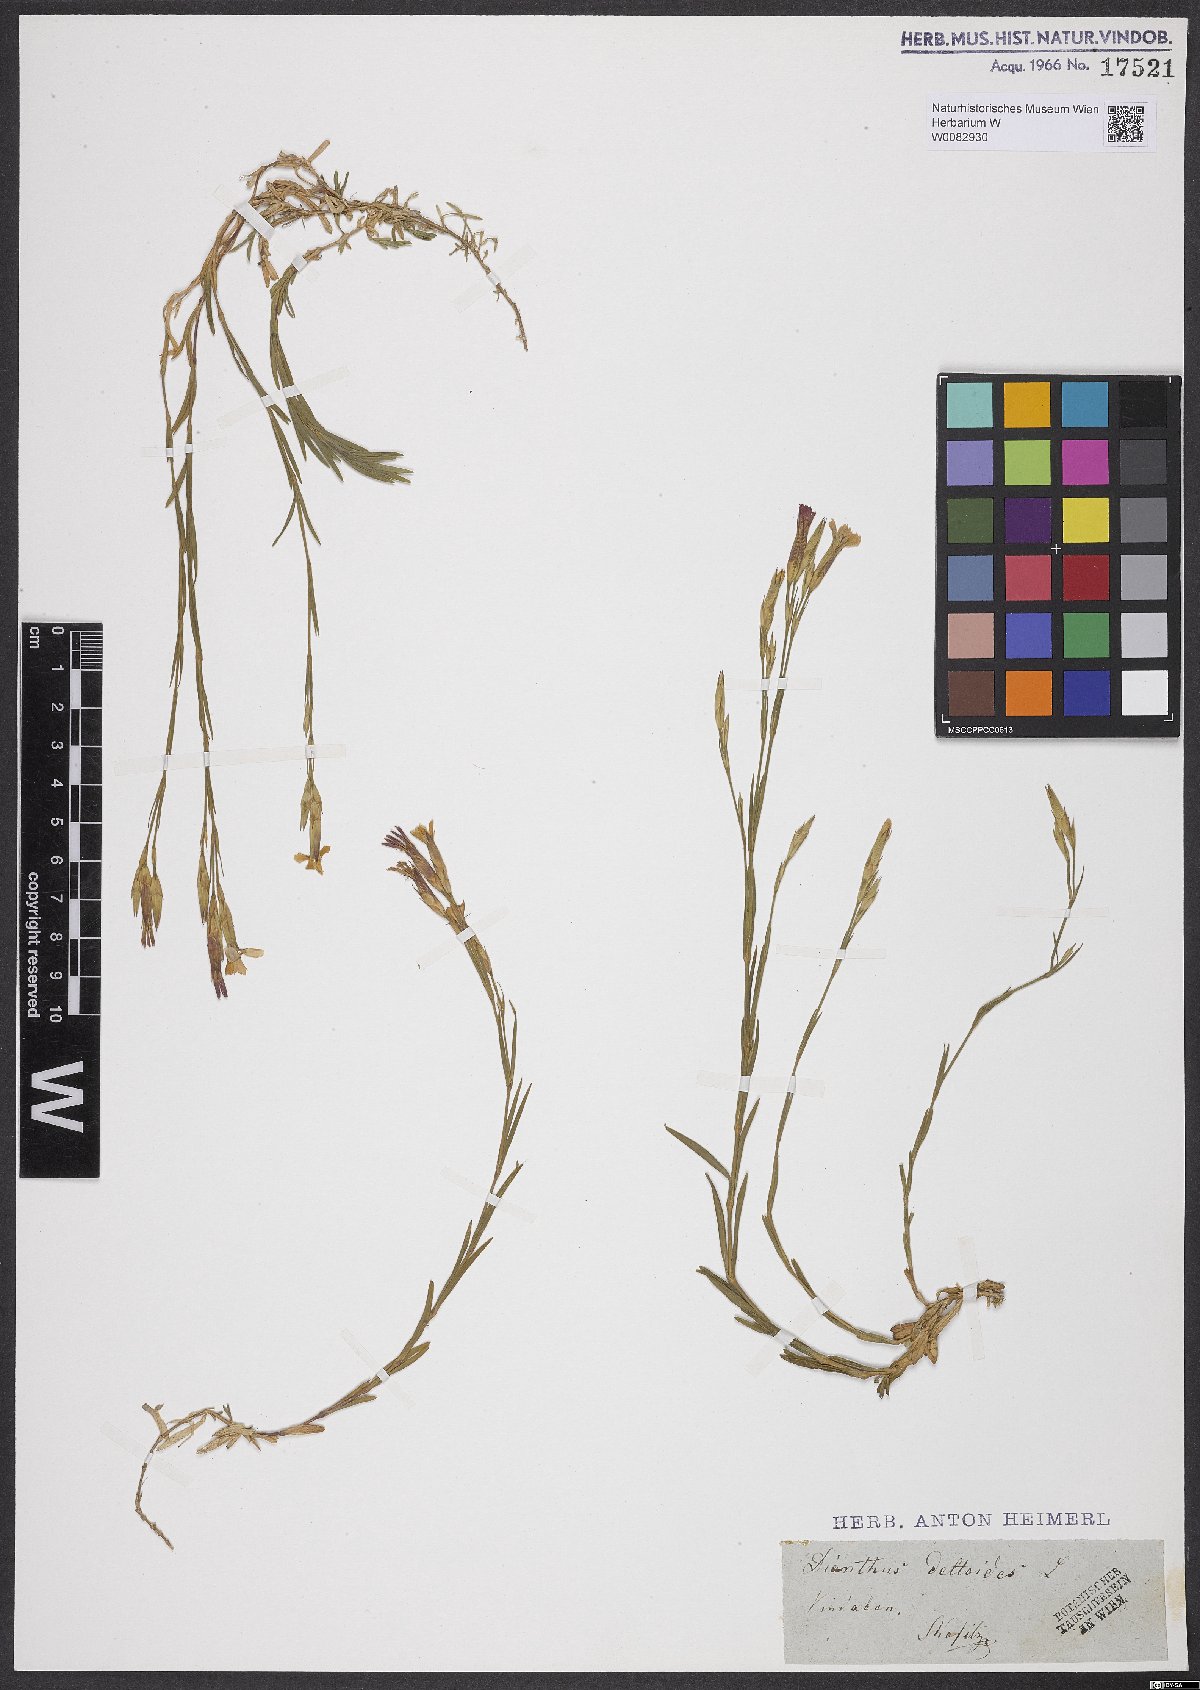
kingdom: Plantae
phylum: Tracheophyta
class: Magnoliopsida
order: Caryophyllales
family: Caryophyllaceae
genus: Dianthus
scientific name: Dianthus deltoides
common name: Maiden pink
